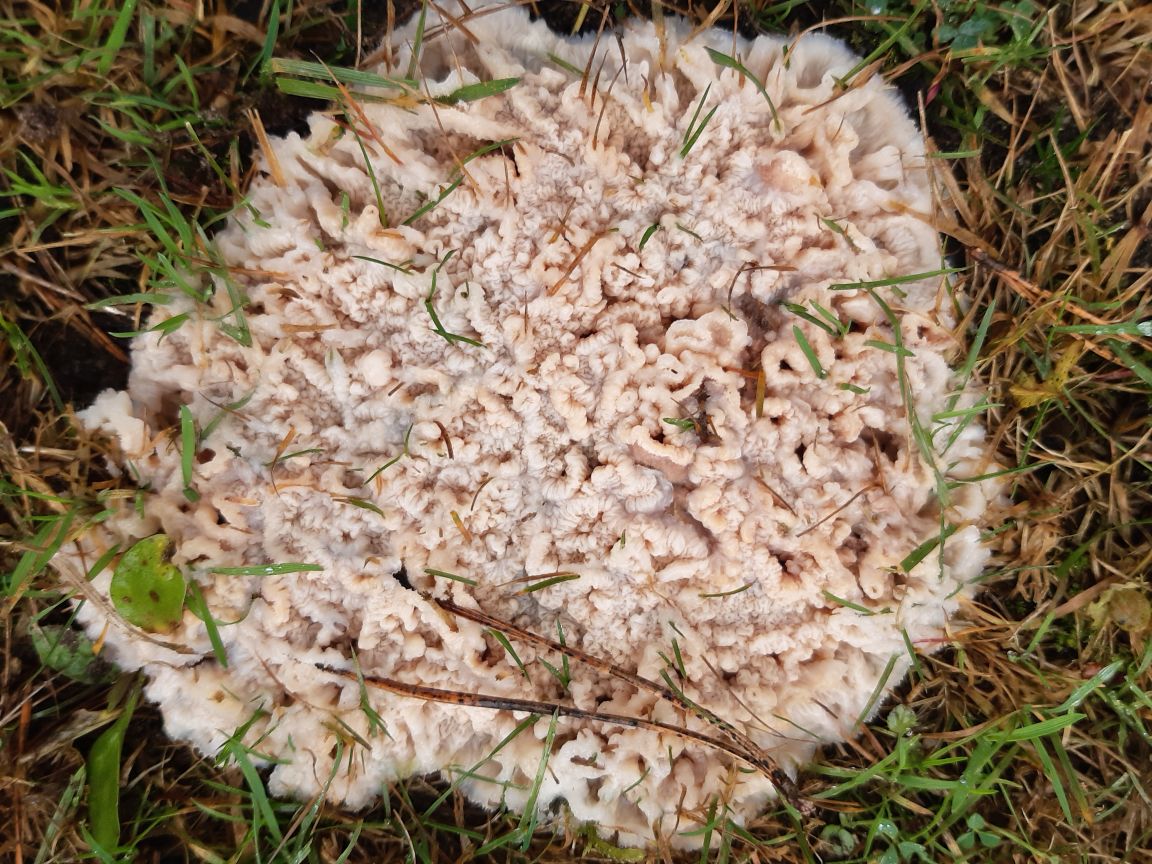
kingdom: Fungi
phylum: Basidiomycota
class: Agaricomycetes
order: Polyporales
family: Meruliaceae
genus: Phlebia
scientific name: Phlebia tremellosa
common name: bævrende åresvamp
